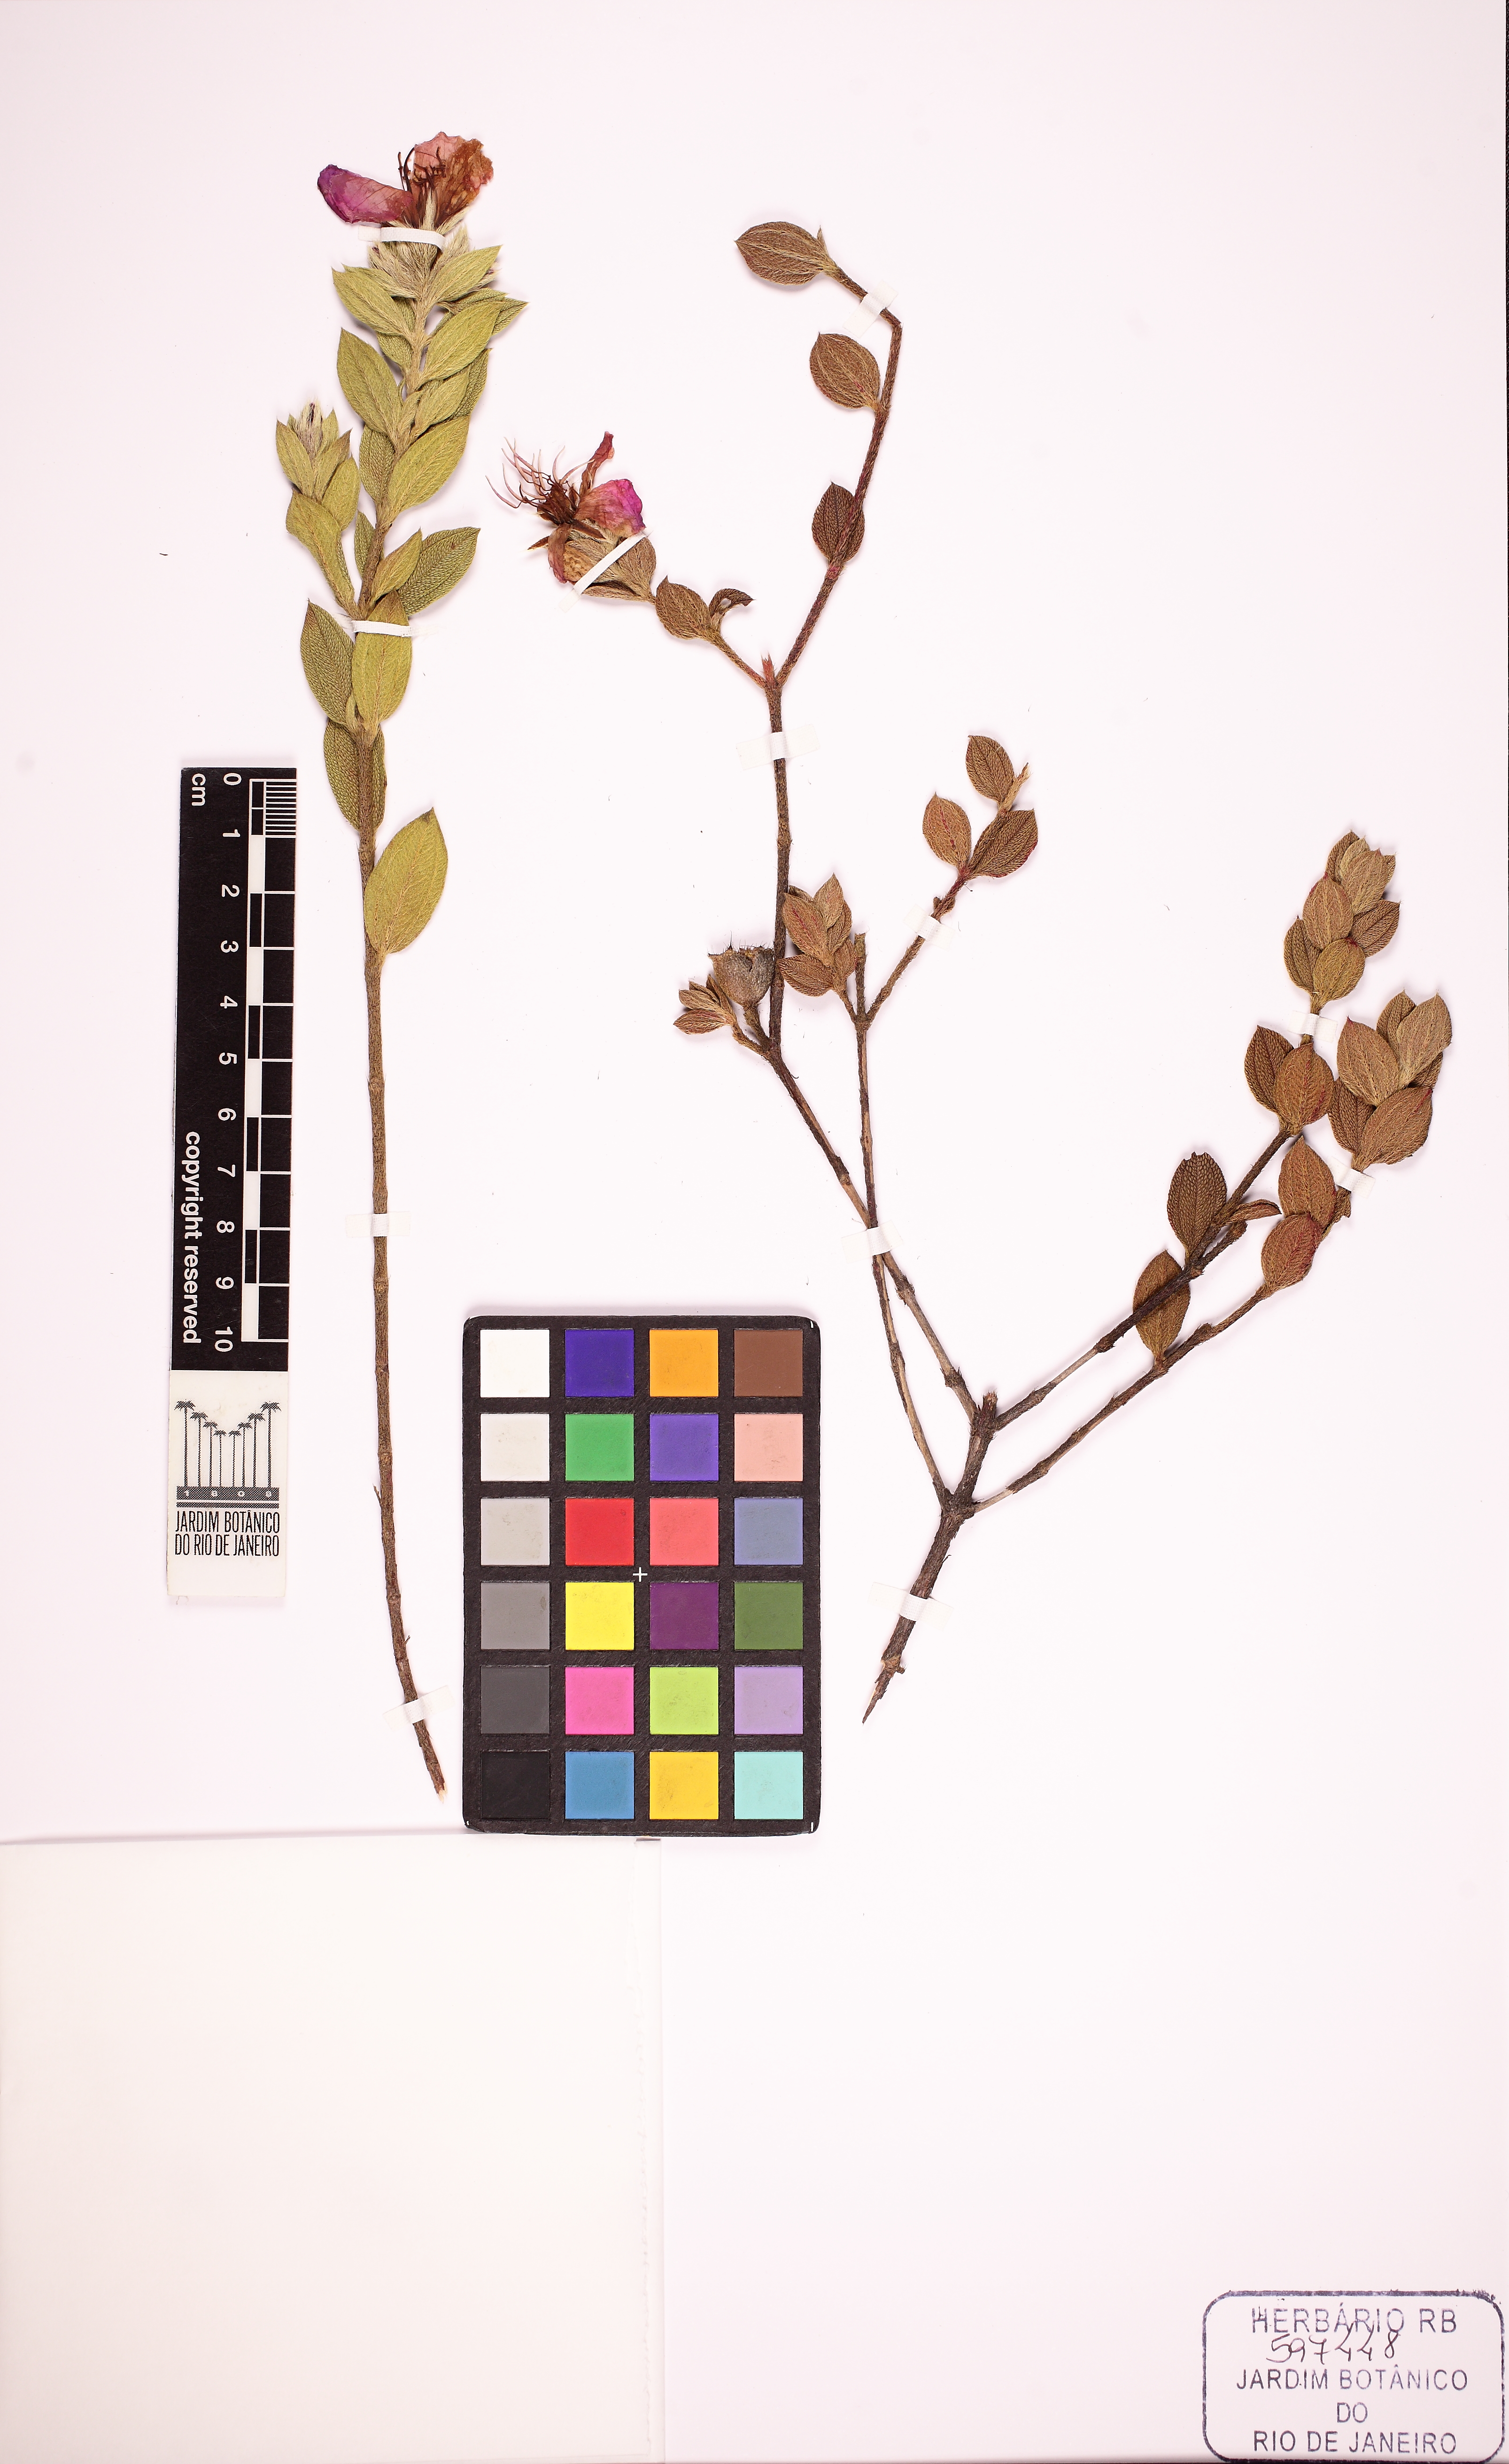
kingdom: Plantae
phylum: Tracheophyta
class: Magnoliopsida
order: Myrtales
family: Melastomataceae
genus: Tibouchina
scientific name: Tibouchina
